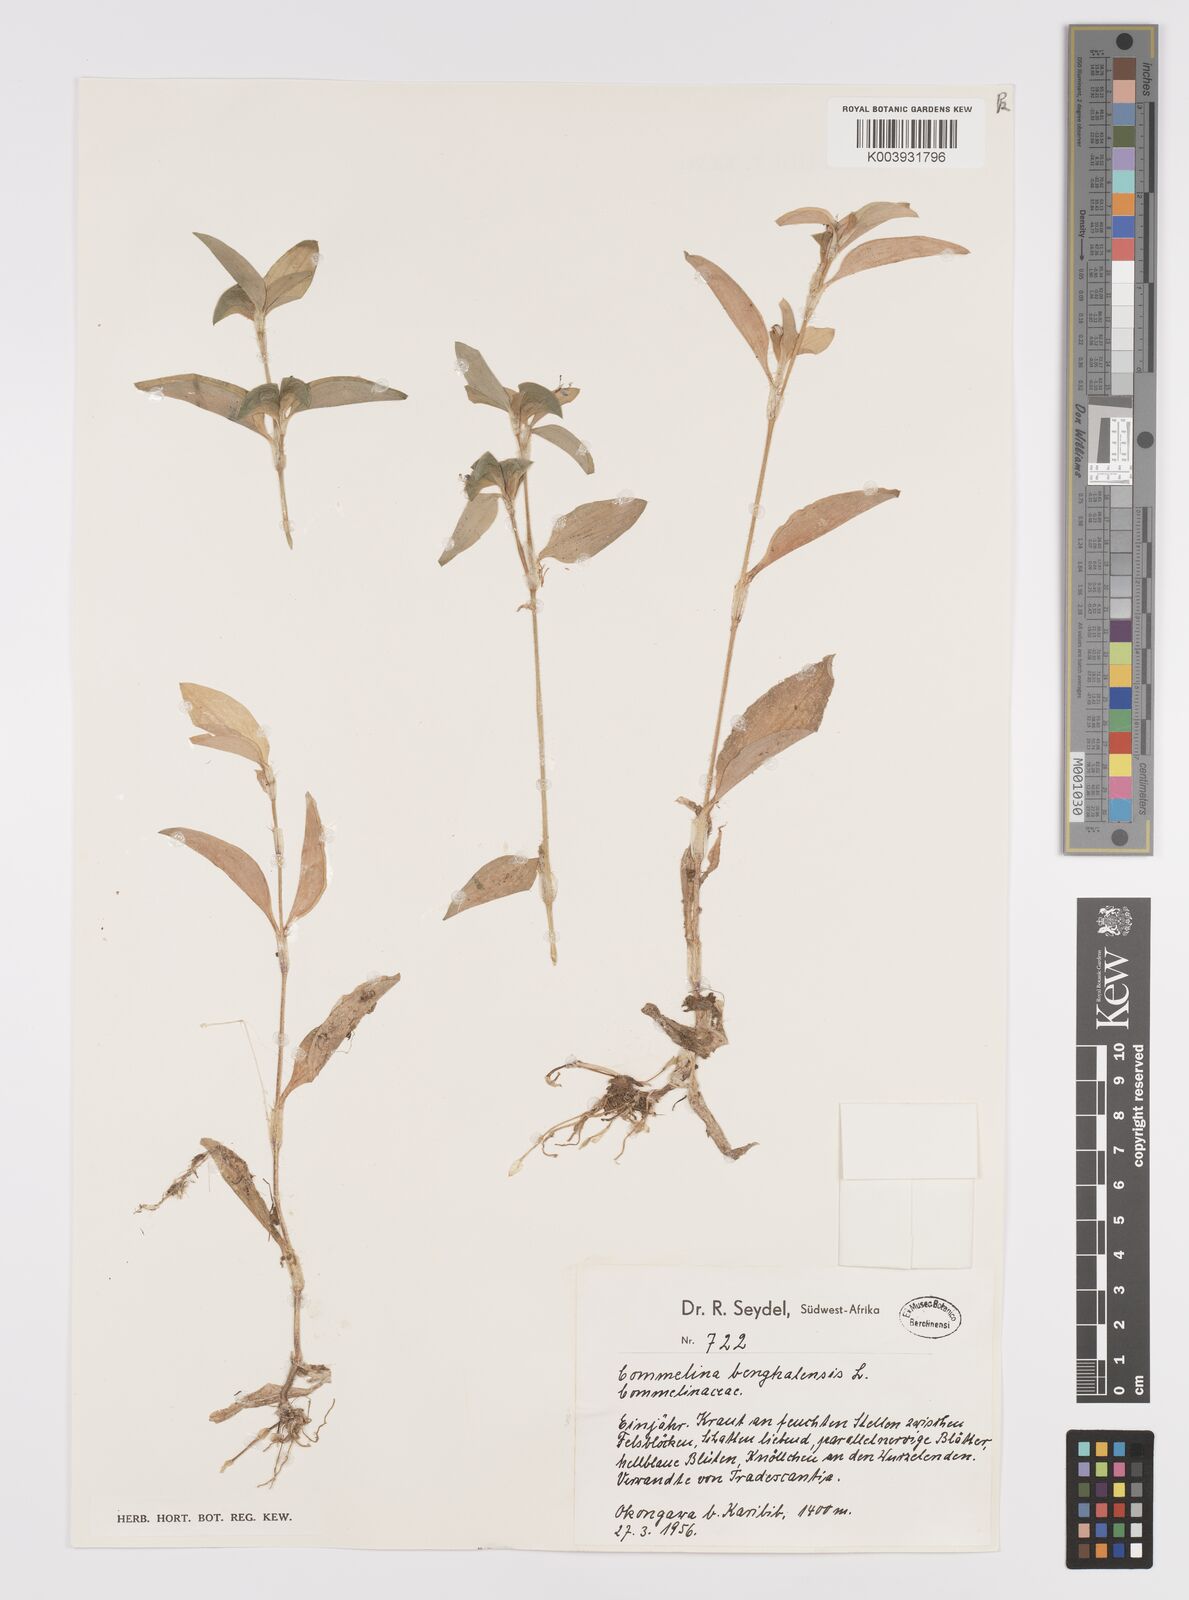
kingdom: Plantae
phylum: Tracheophyta
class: Liliopsida
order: Commelinales
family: Commelinaceae
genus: Commelina
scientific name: Commelina benghalensis
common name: Jio
